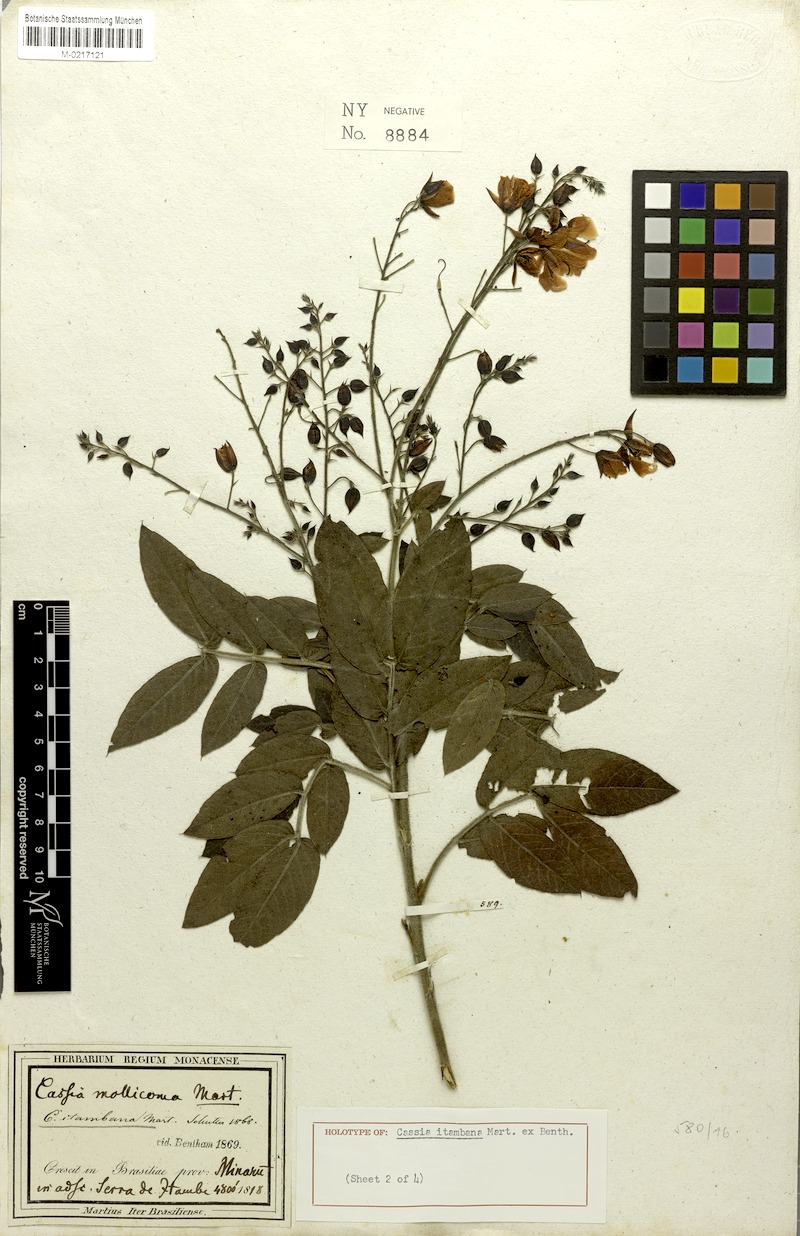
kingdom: Plantae
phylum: Tracheophyta
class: Magnoliopsida
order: Fabales
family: Fabaceae
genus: Chamaecrista
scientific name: Chamaecrista itambana
